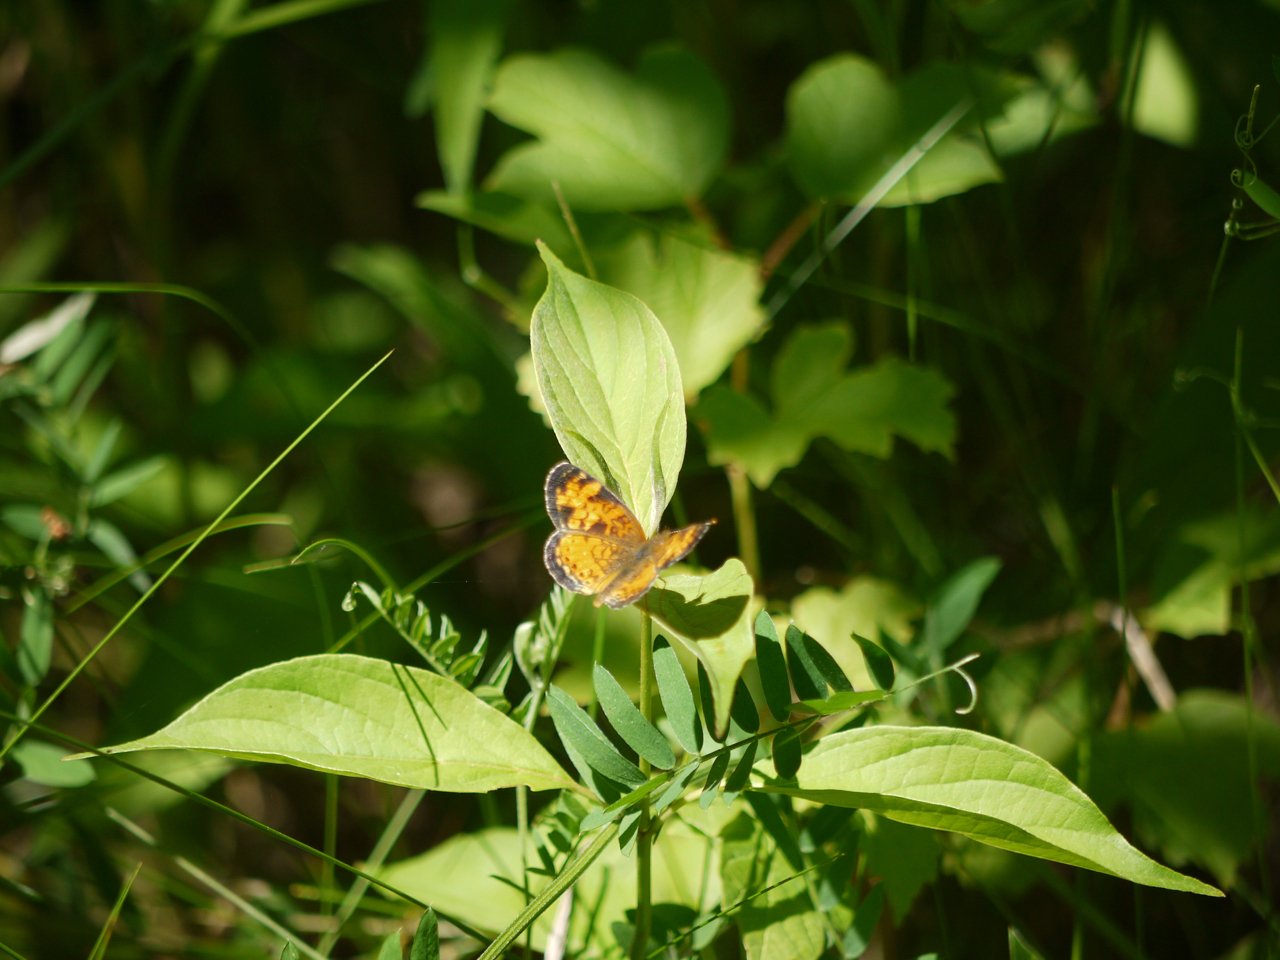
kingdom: Animalia
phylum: Arthropoda
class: Insecta
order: Lepidoptera
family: Nymphalidae
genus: Phyciodes
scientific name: Phyciodes tharos
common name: Northern Crescent
